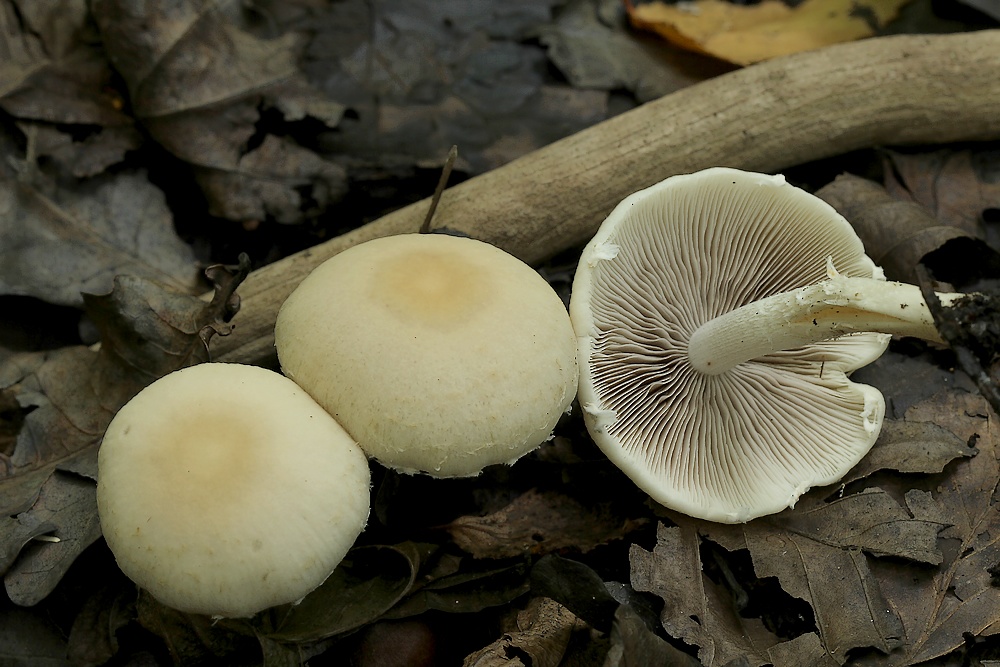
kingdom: Fungi
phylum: Basidiomycota
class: Agaricomycetes
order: Agaricales
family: Psathyrellaceae
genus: Candolleomyces
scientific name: Candolleomyces candolleanus
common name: Candolles mørkhat
